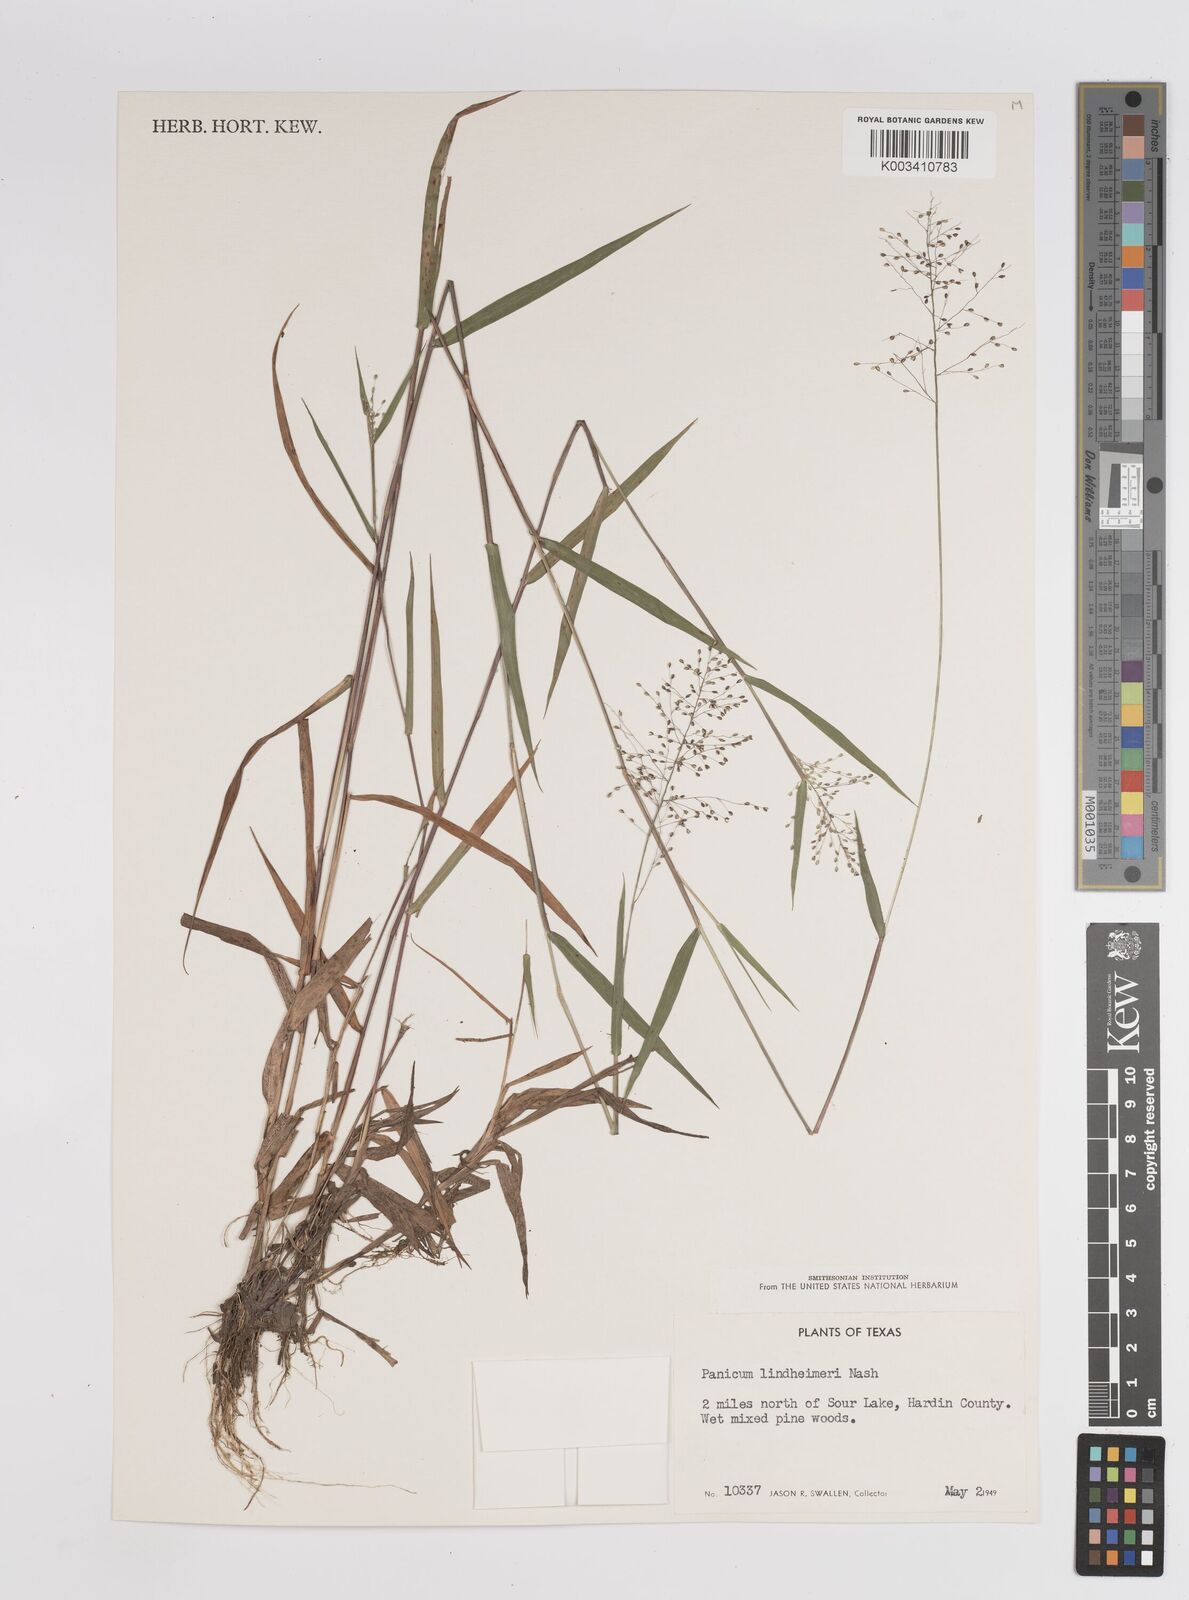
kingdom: Plantae
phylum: Tracheophyta
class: Liliopsida
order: Poales
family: Poaceae
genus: Dichanthelium
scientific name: Dichanthelium acuminatum
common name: Hairy panic grass
